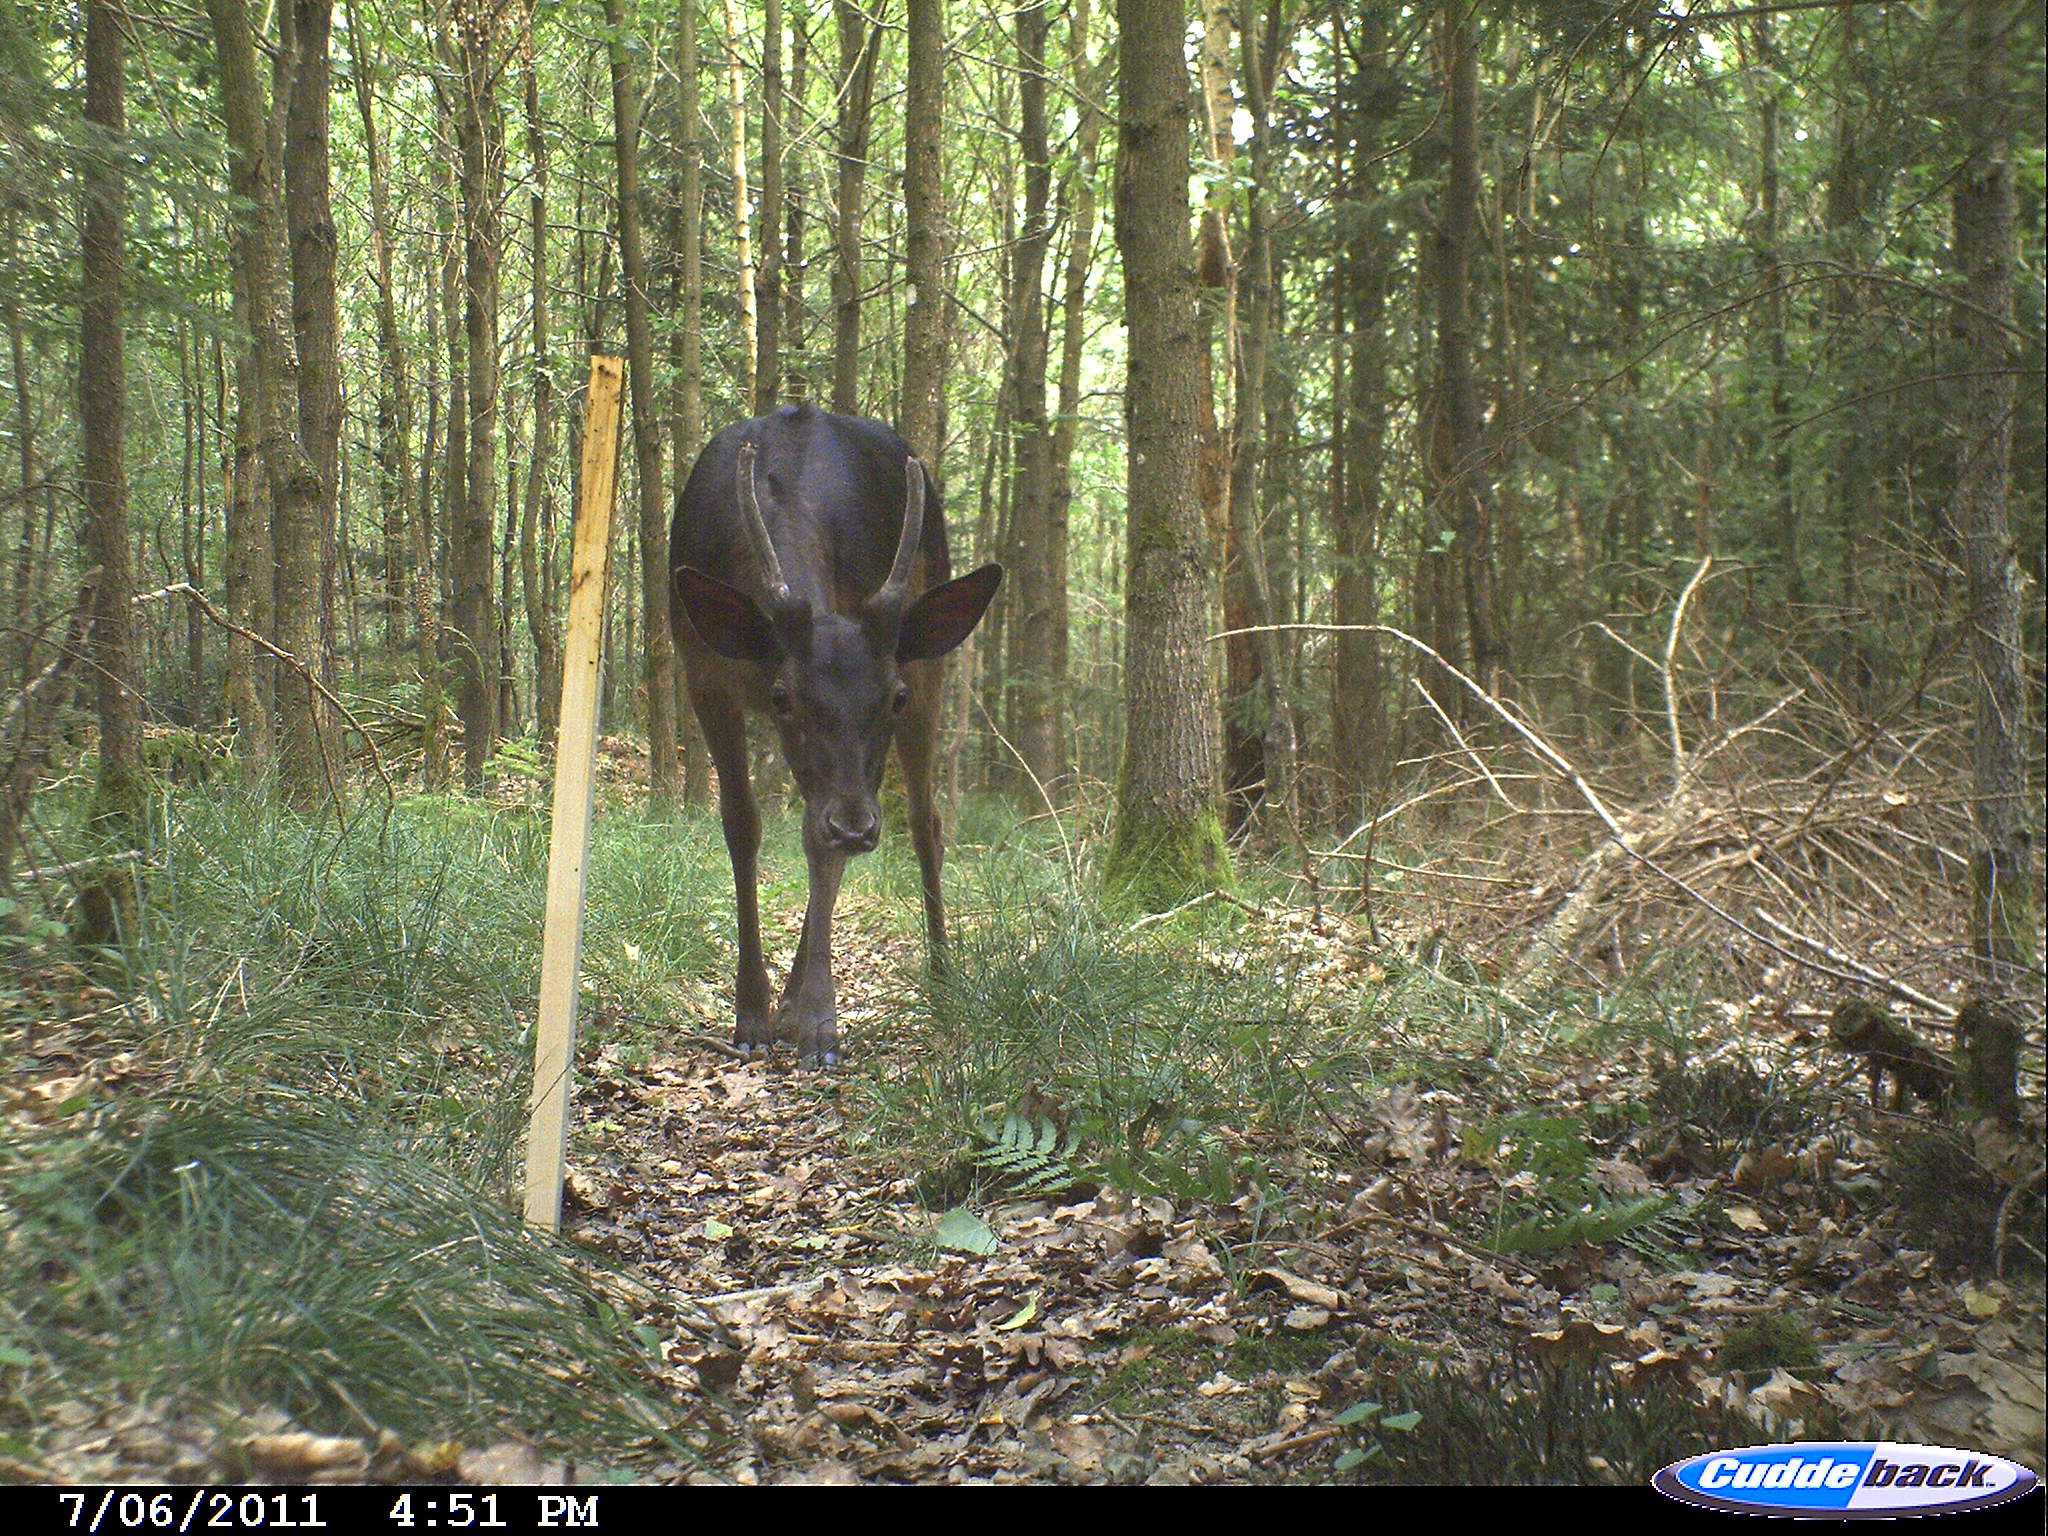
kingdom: Animalia
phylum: Chordata
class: Mammalia
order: Artiodactyla
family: Cervidae
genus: Cervus
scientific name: Cervus
